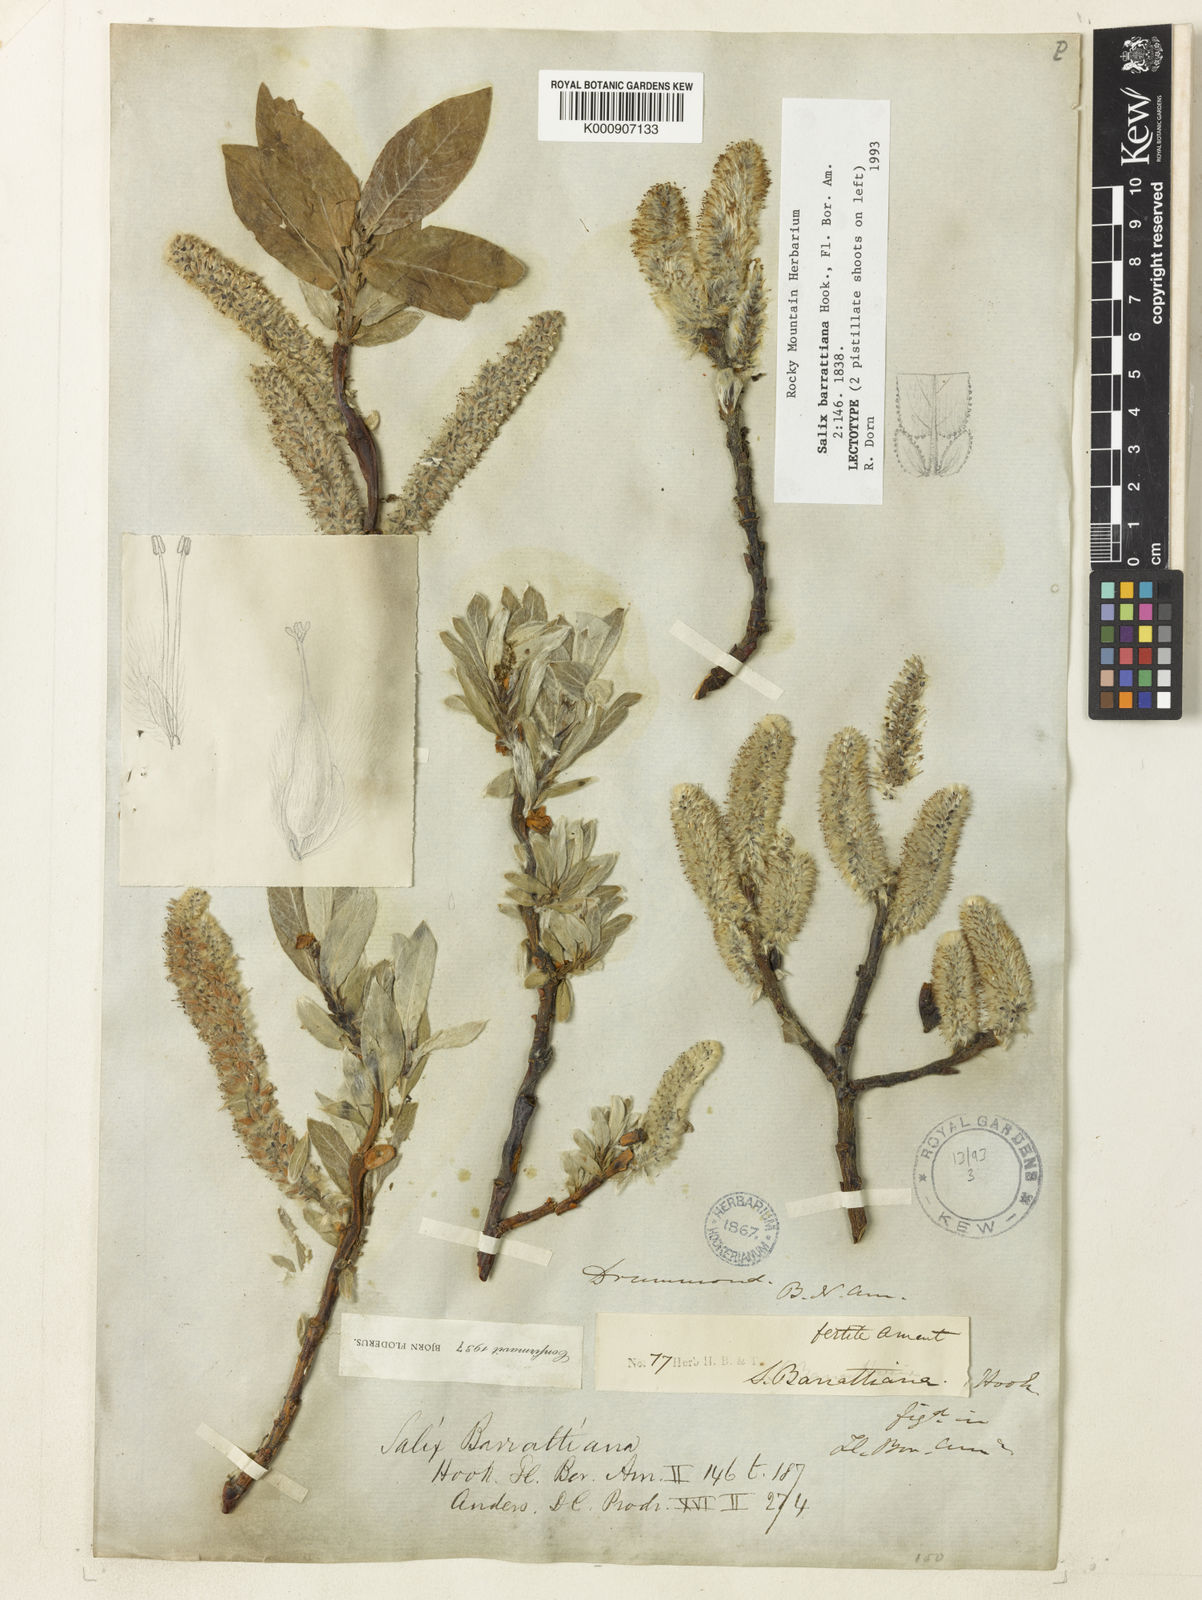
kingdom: Plantae
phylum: Tracheophyta
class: Magnoliopsida
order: Malpighiales
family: Salicaceae
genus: Salix
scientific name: Salix barrattiana
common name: Barratt's willow
